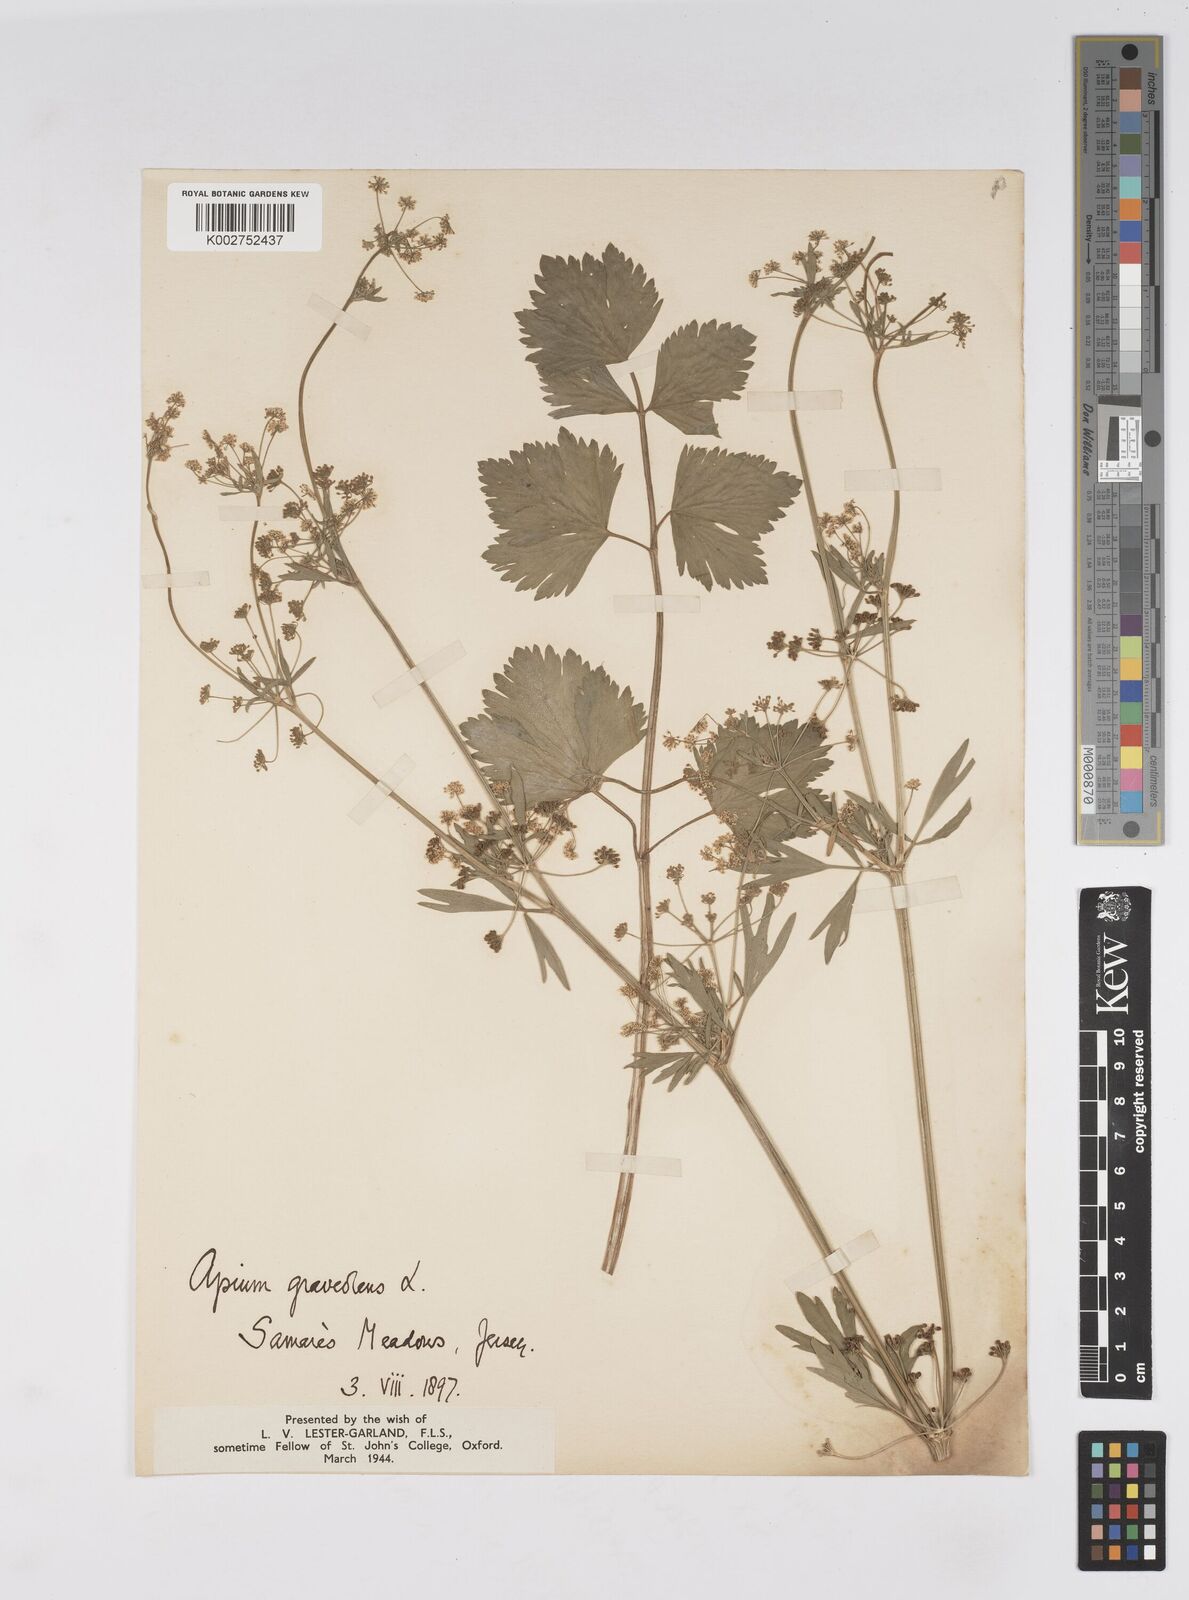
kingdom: Plantae
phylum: Tracheophyta
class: Magnoliopsida
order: Apiales
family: Apiaceae
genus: Apium
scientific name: Apium graveolens
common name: Wild celery
